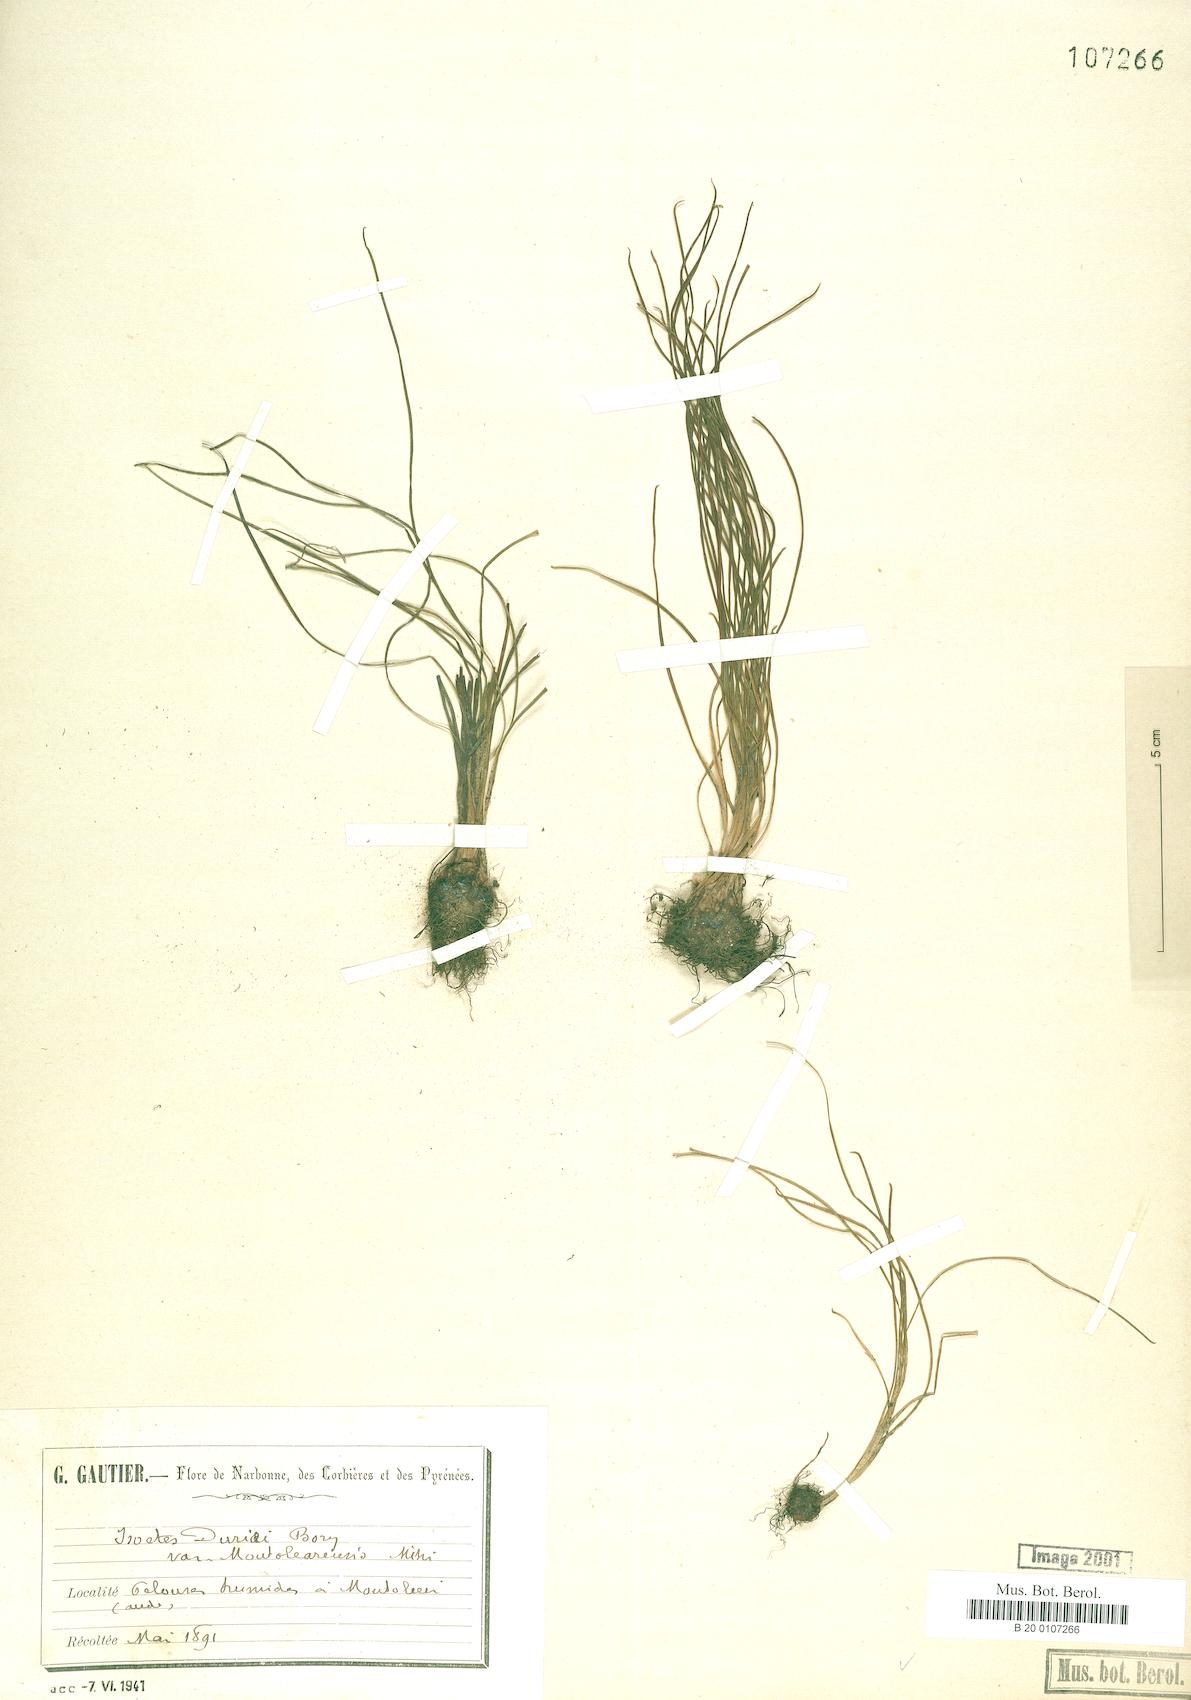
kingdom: Plantae
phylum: Tracheophyta
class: Lycopodiopsida
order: Isoetales
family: Isoetaceae
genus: Isoetes
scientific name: Isoetes duriei
